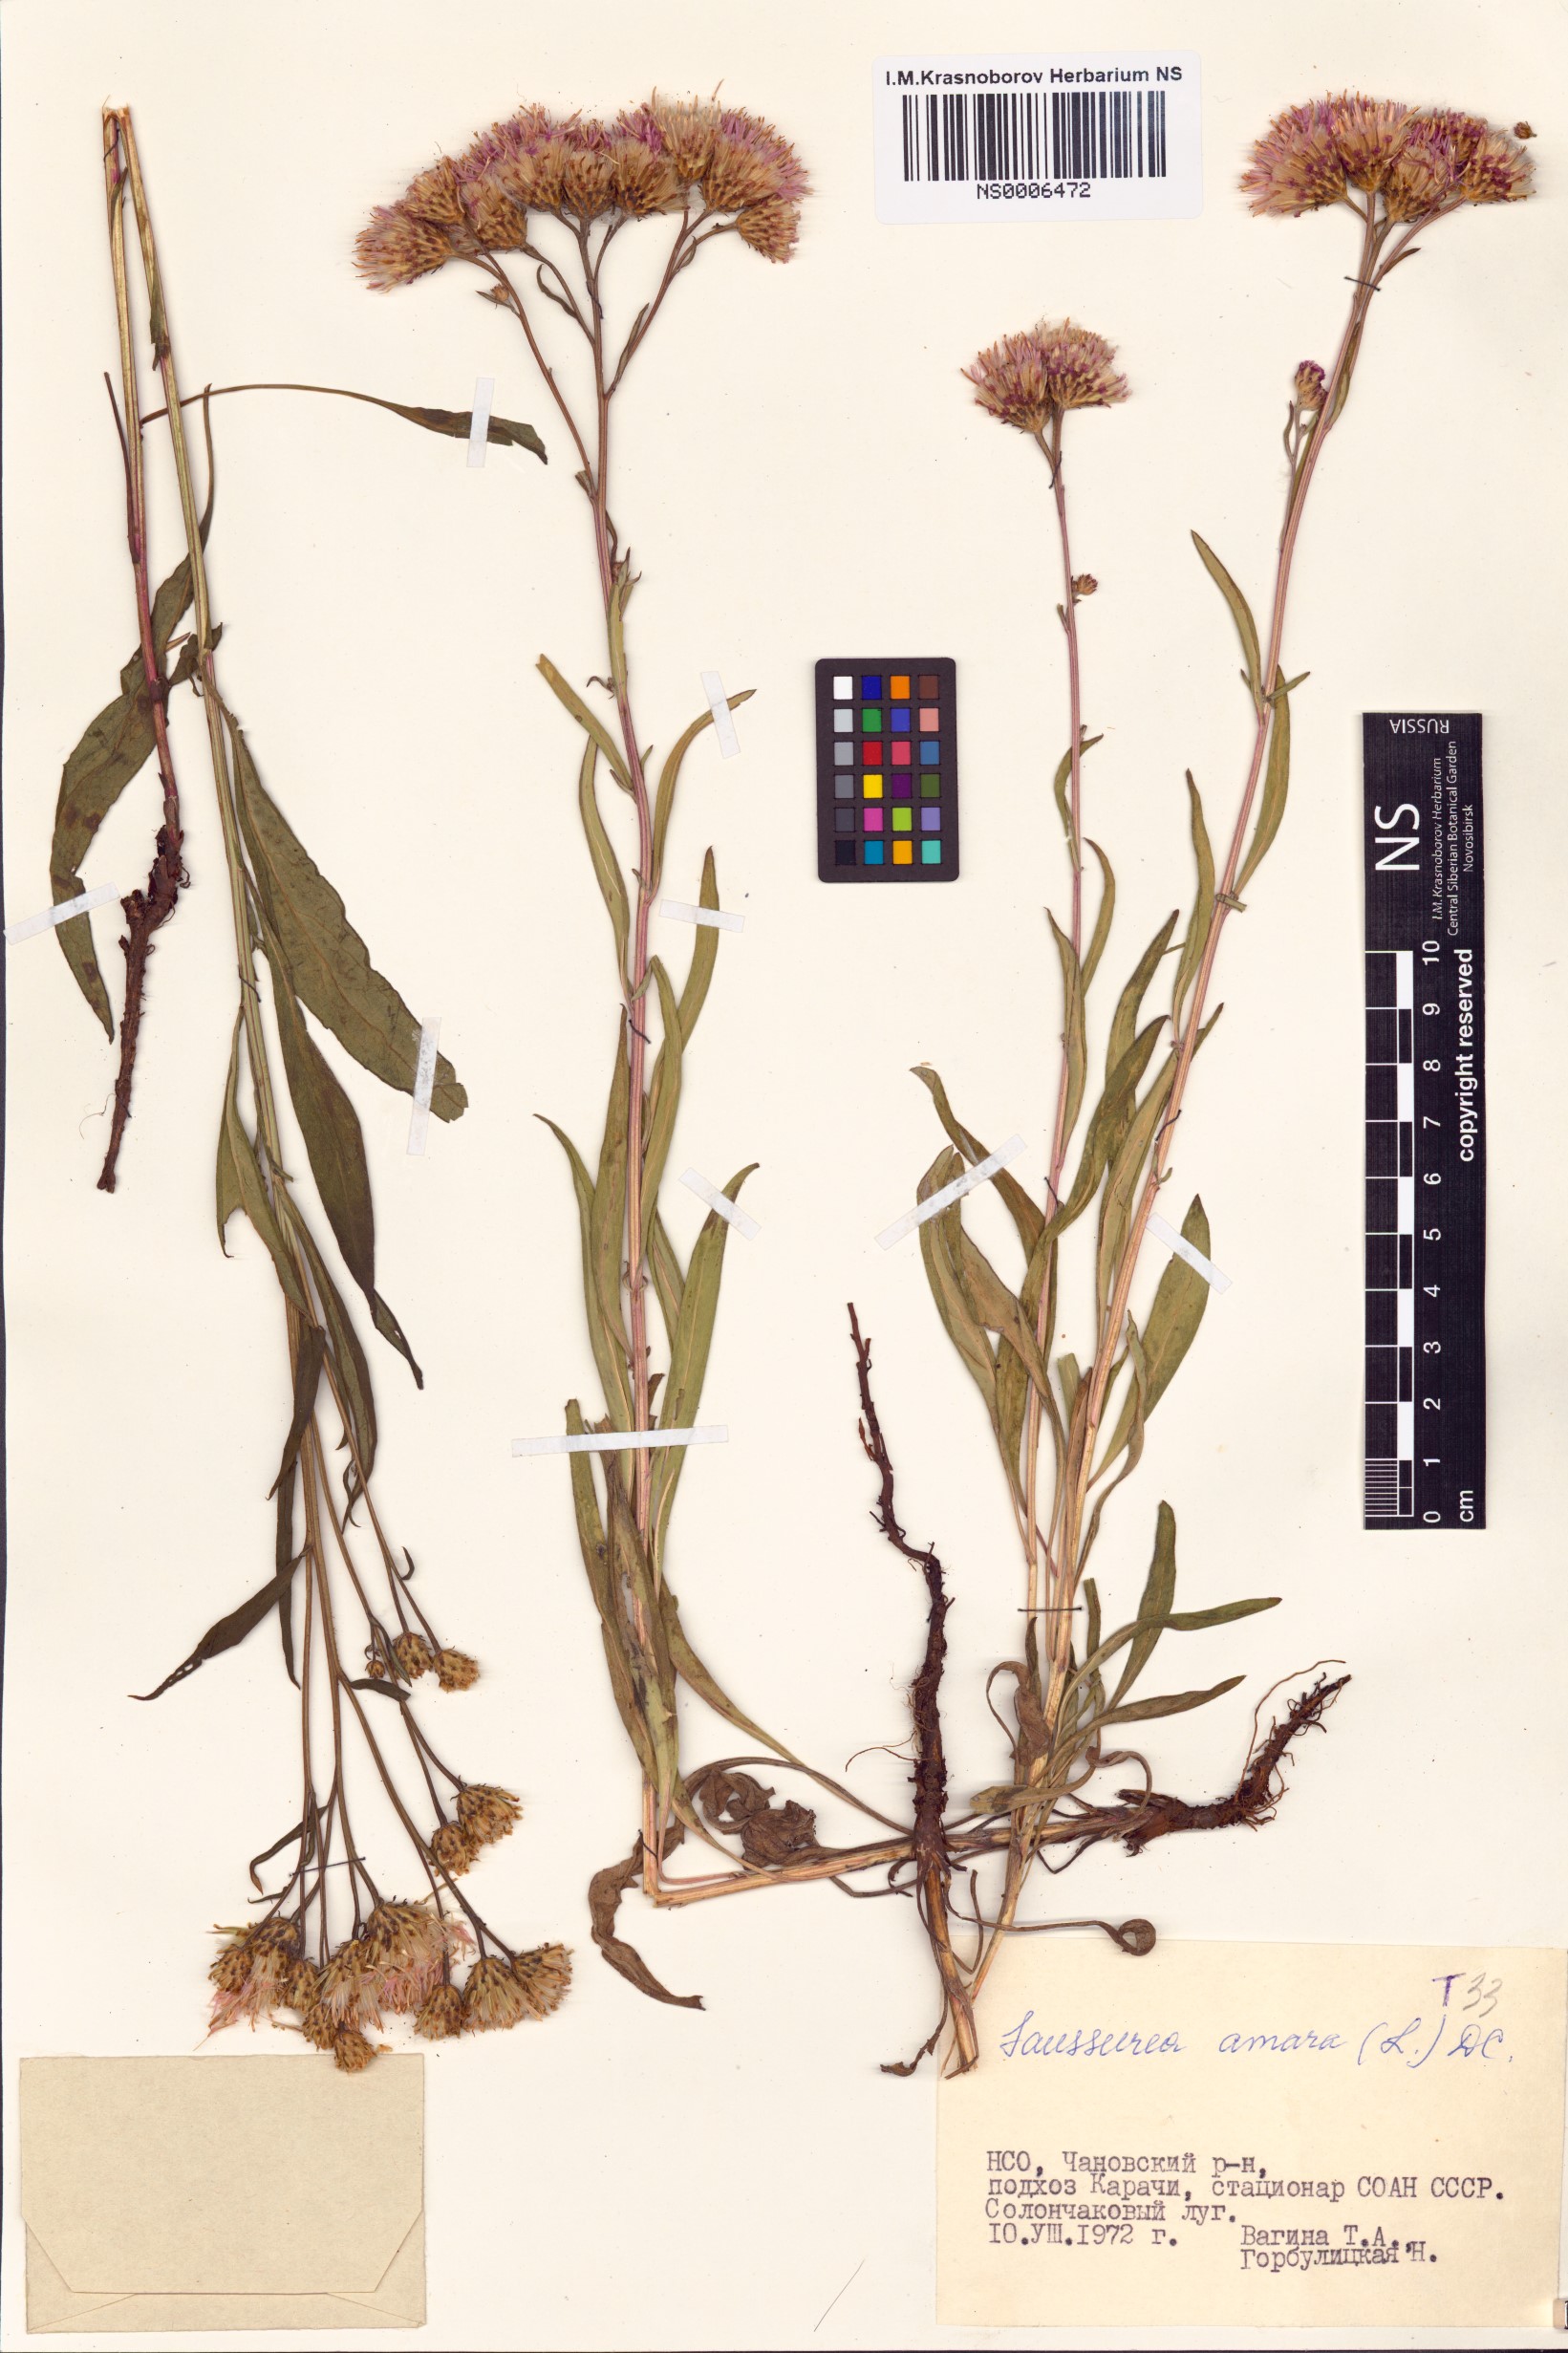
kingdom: Plantae
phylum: Tracheophyta
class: Magnoliopsida
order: Asterales
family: Asteraceae
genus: Saussurea
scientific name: Saussurea amara
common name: Alberta sawwort
